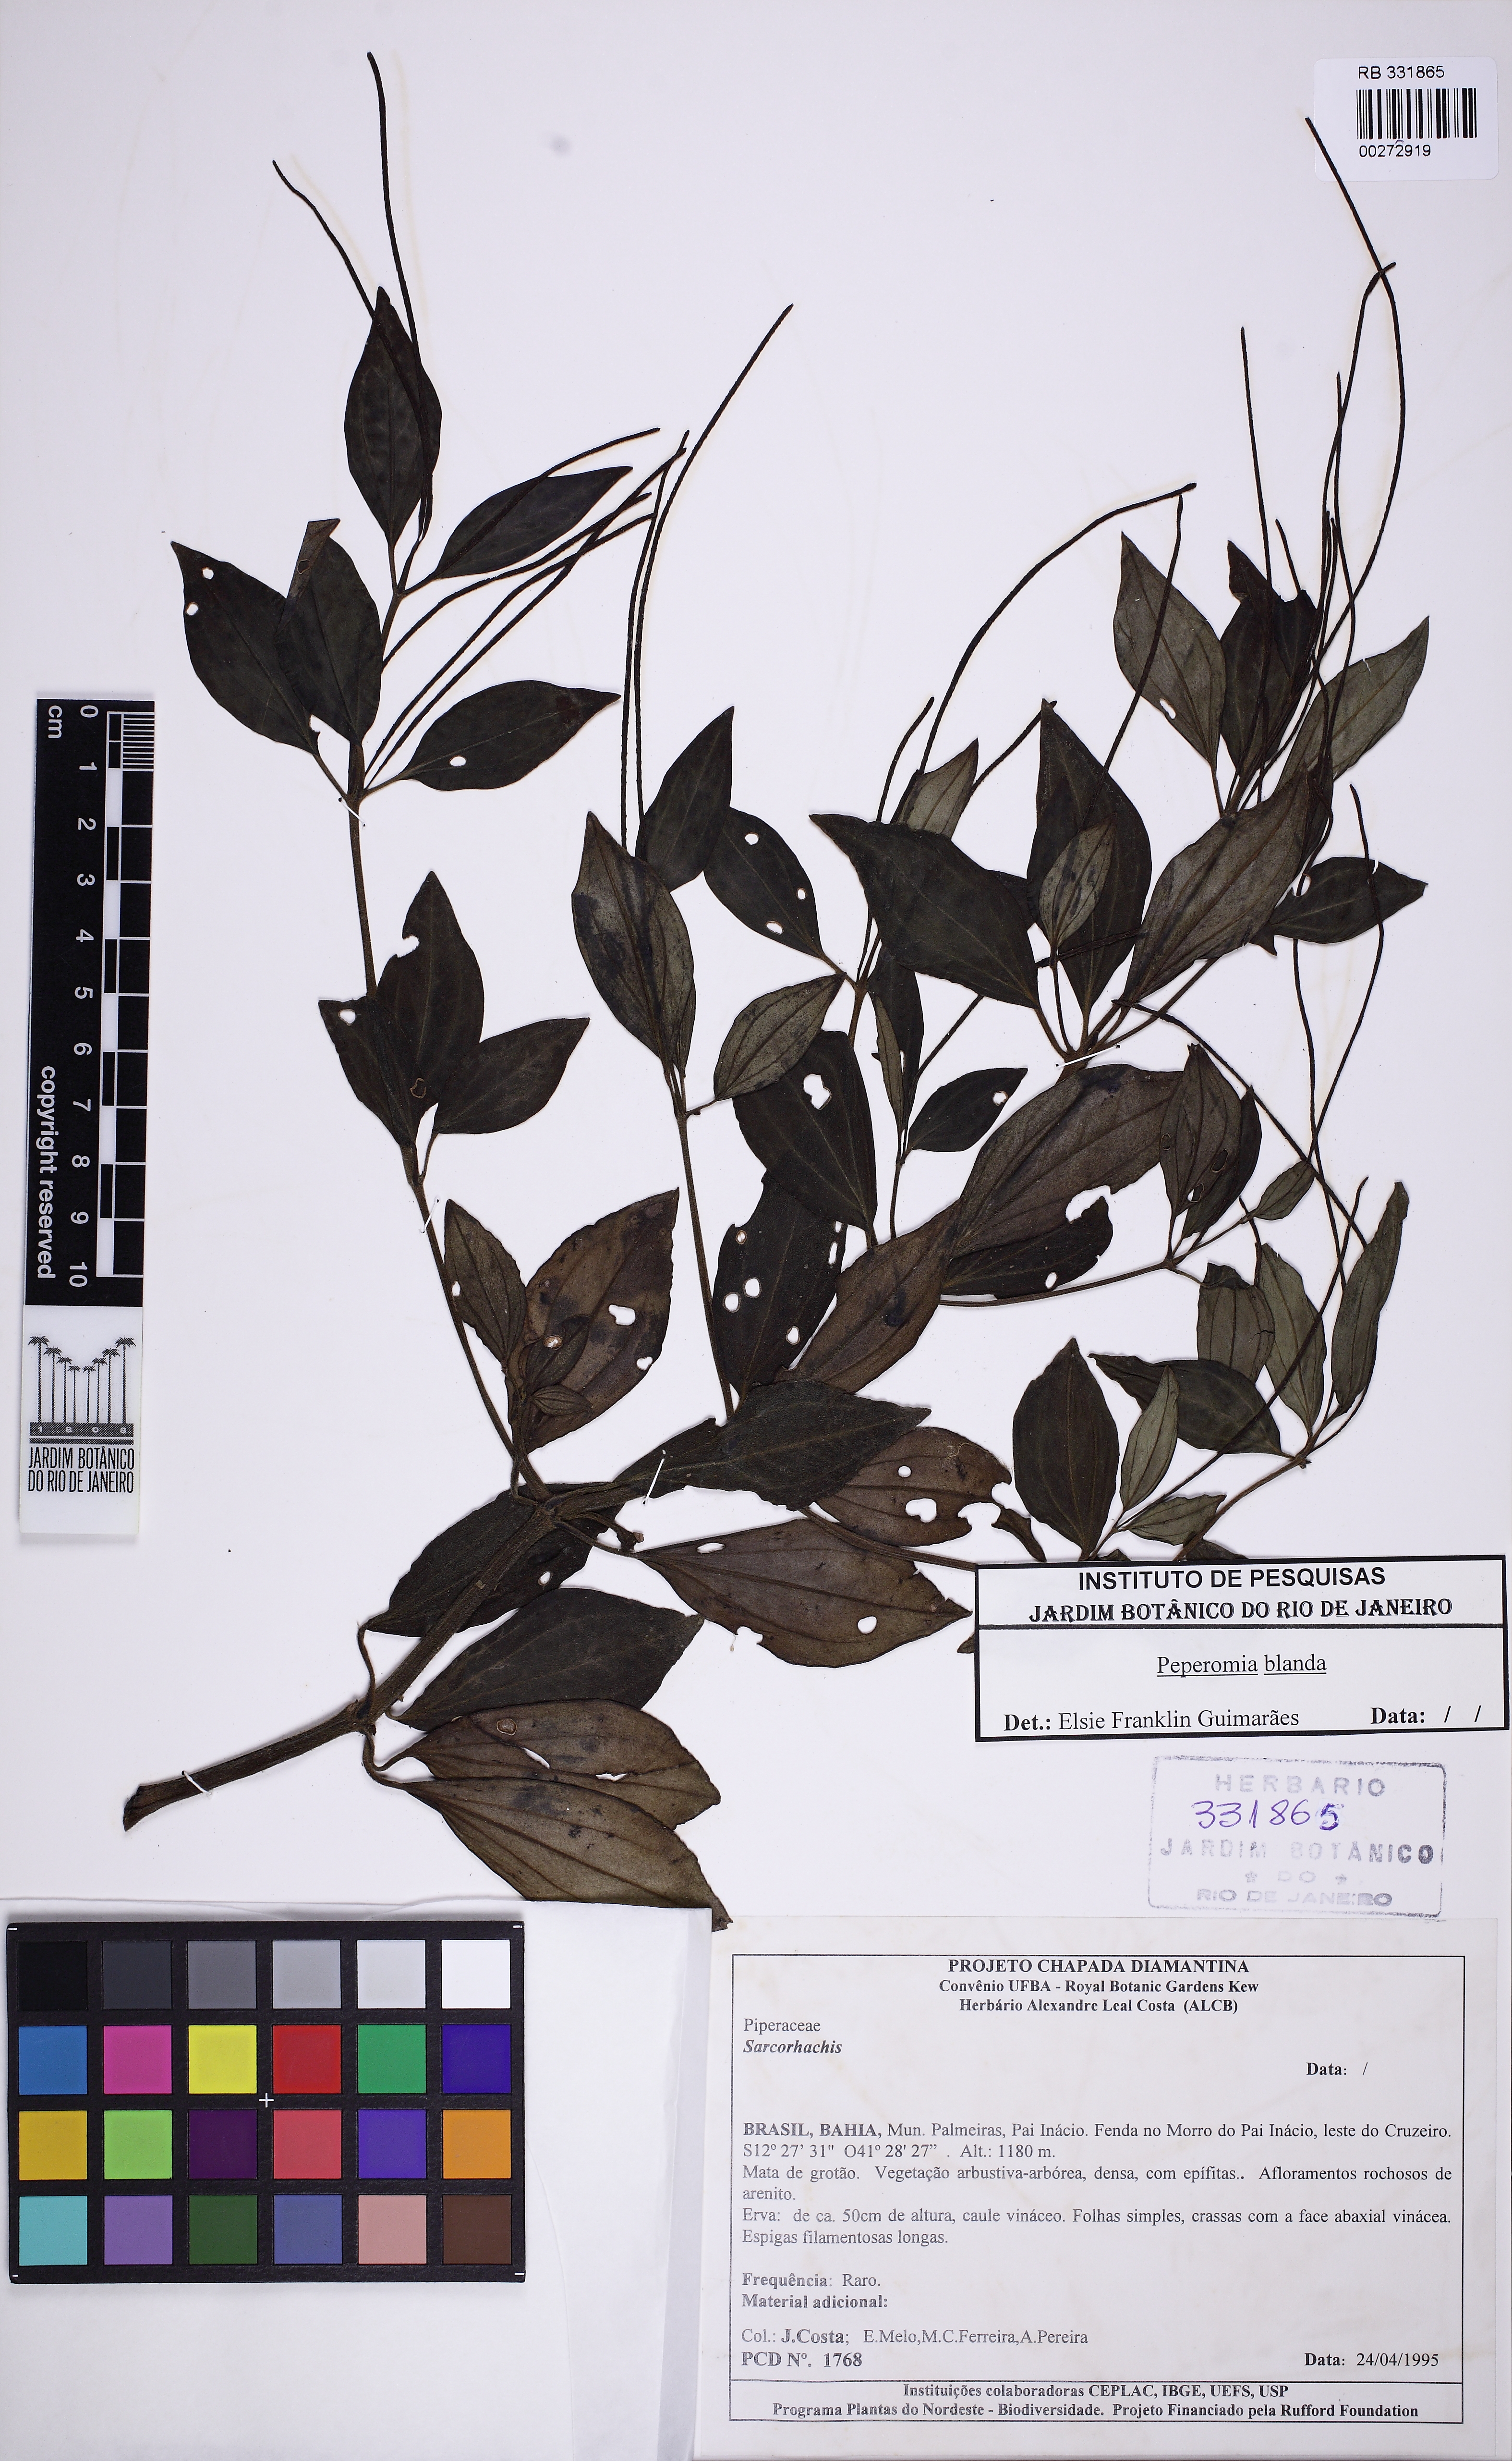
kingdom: Plantae
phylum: Tracheophyta
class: Magnoliopsida
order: Piperales
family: Piperaceae
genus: Peperomia
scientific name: Peperomia blanda
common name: Arid-land peperomia
